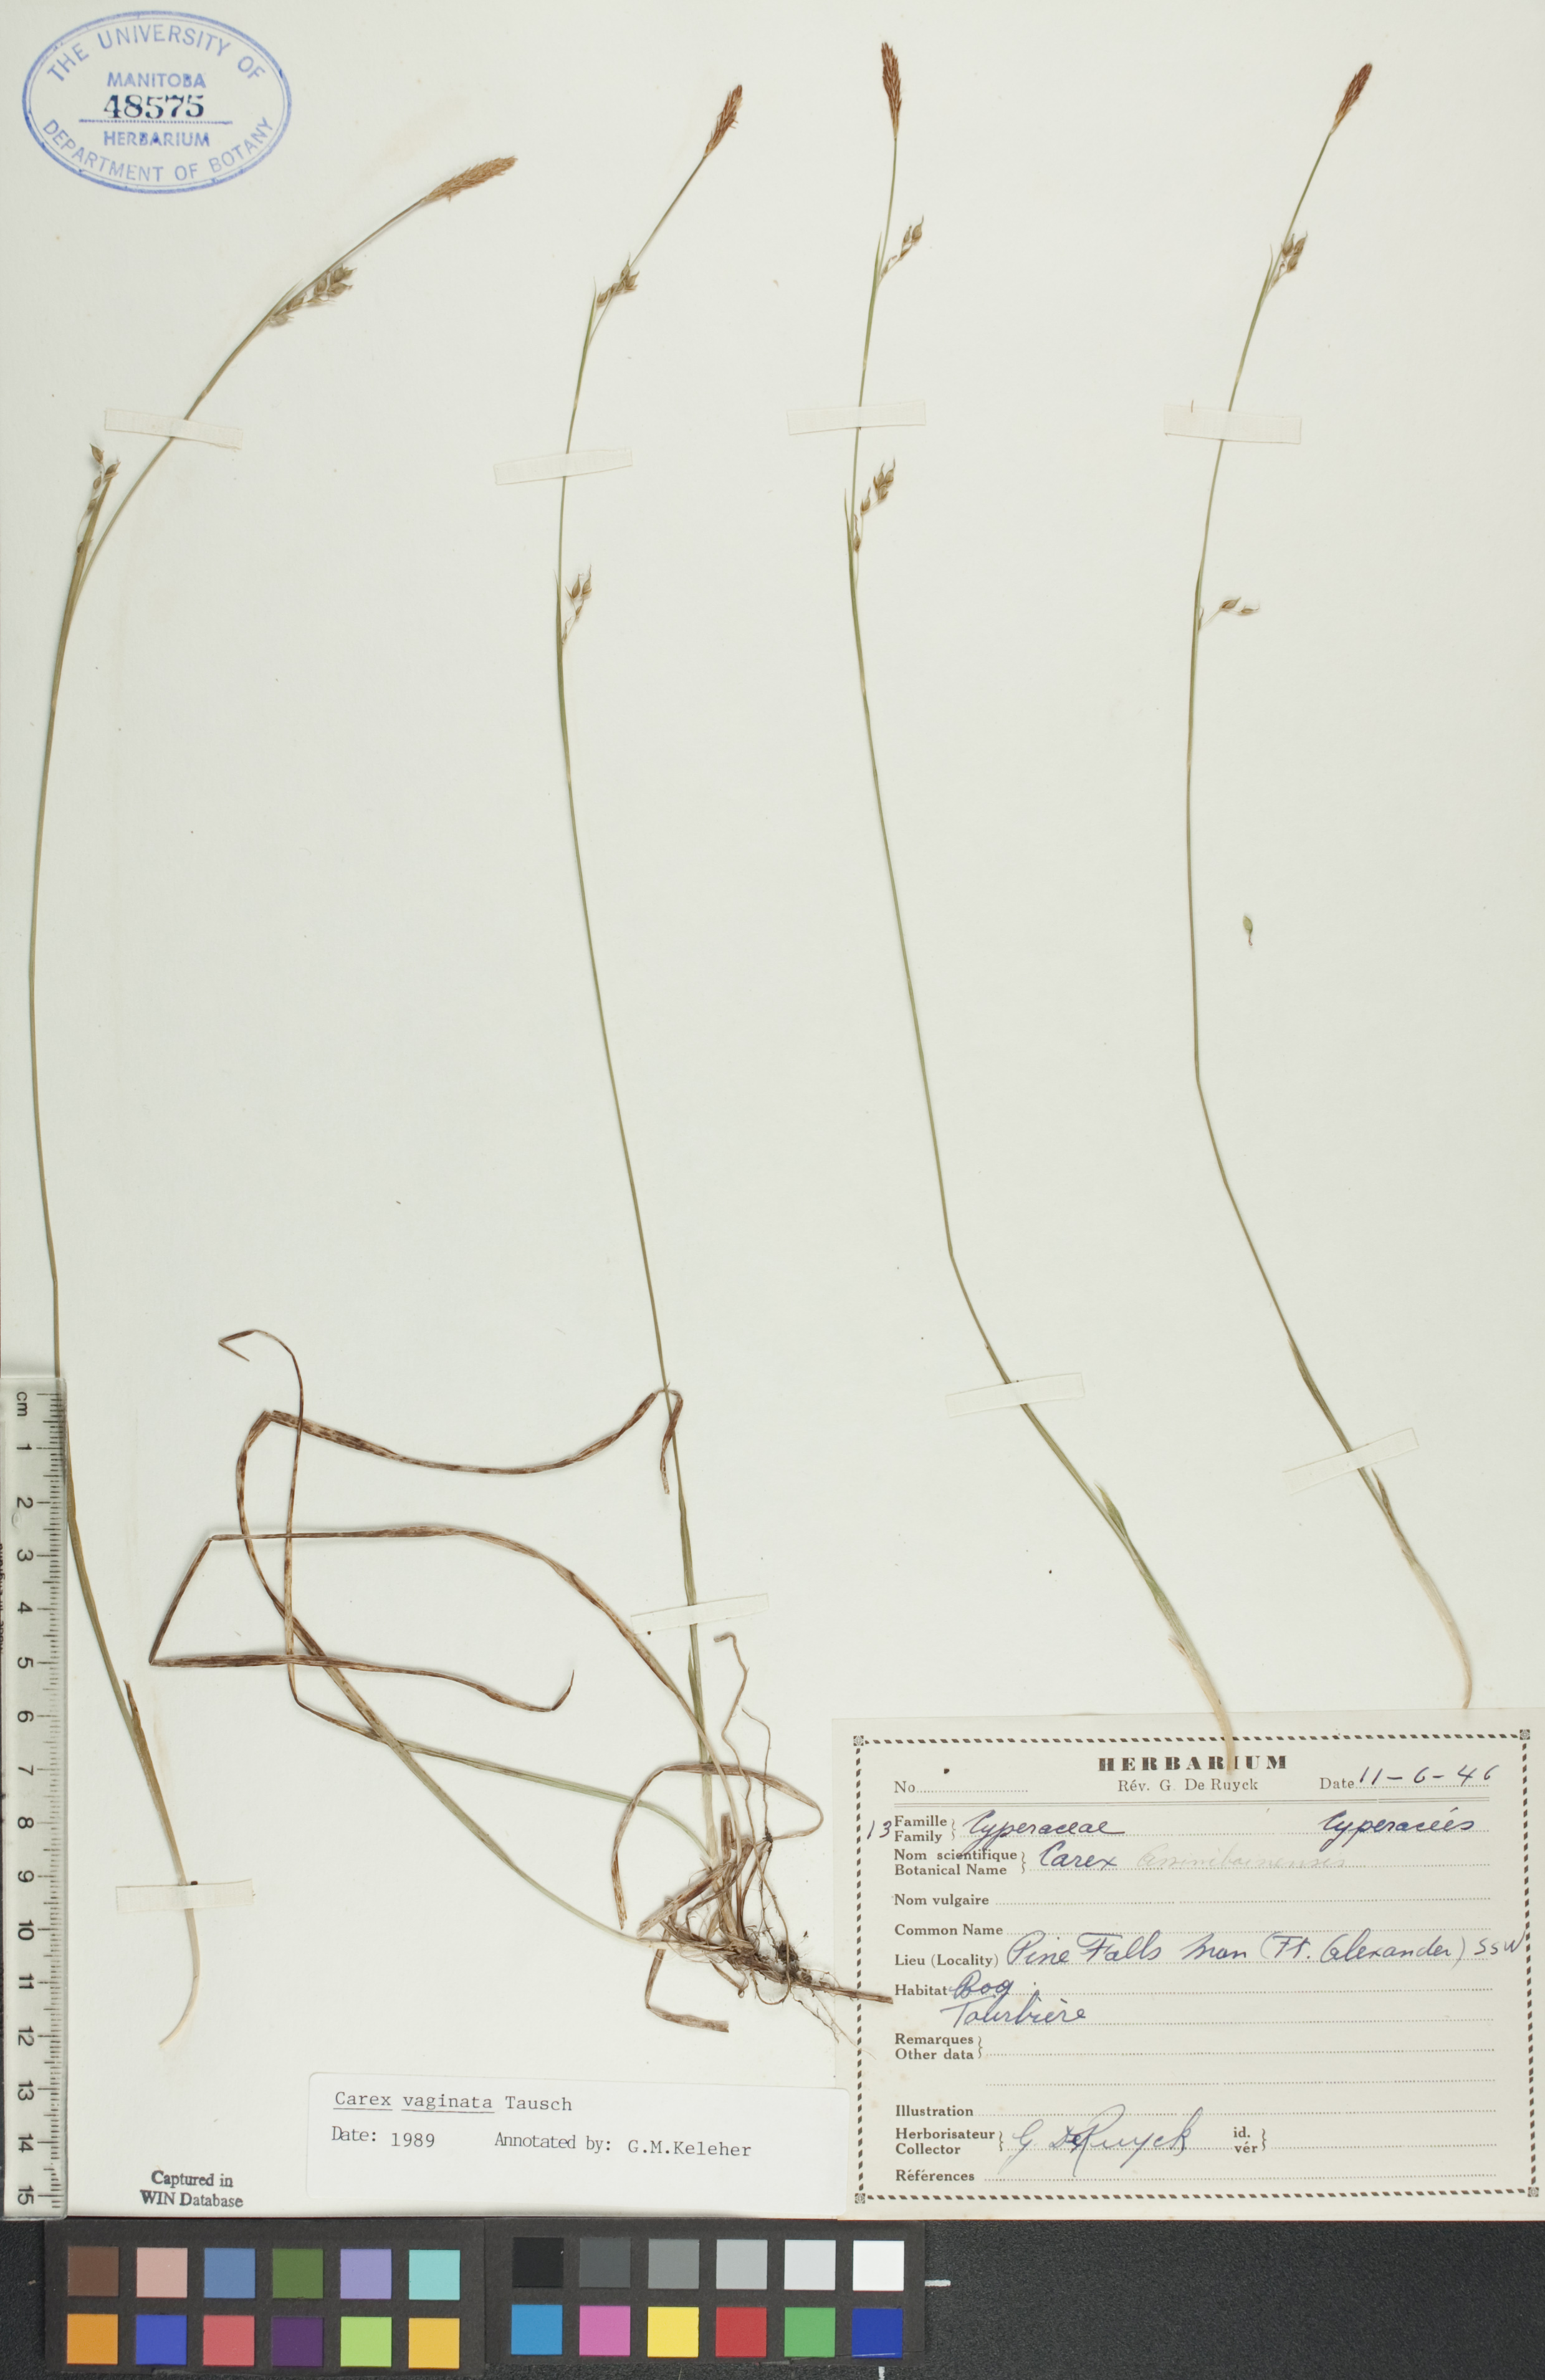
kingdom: Plantae
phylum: Tracheophyta
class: Liliopsida
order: Poales
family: Cyperaceae
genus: Carex
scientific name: Carex vaginata
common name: Sheathed sedge
